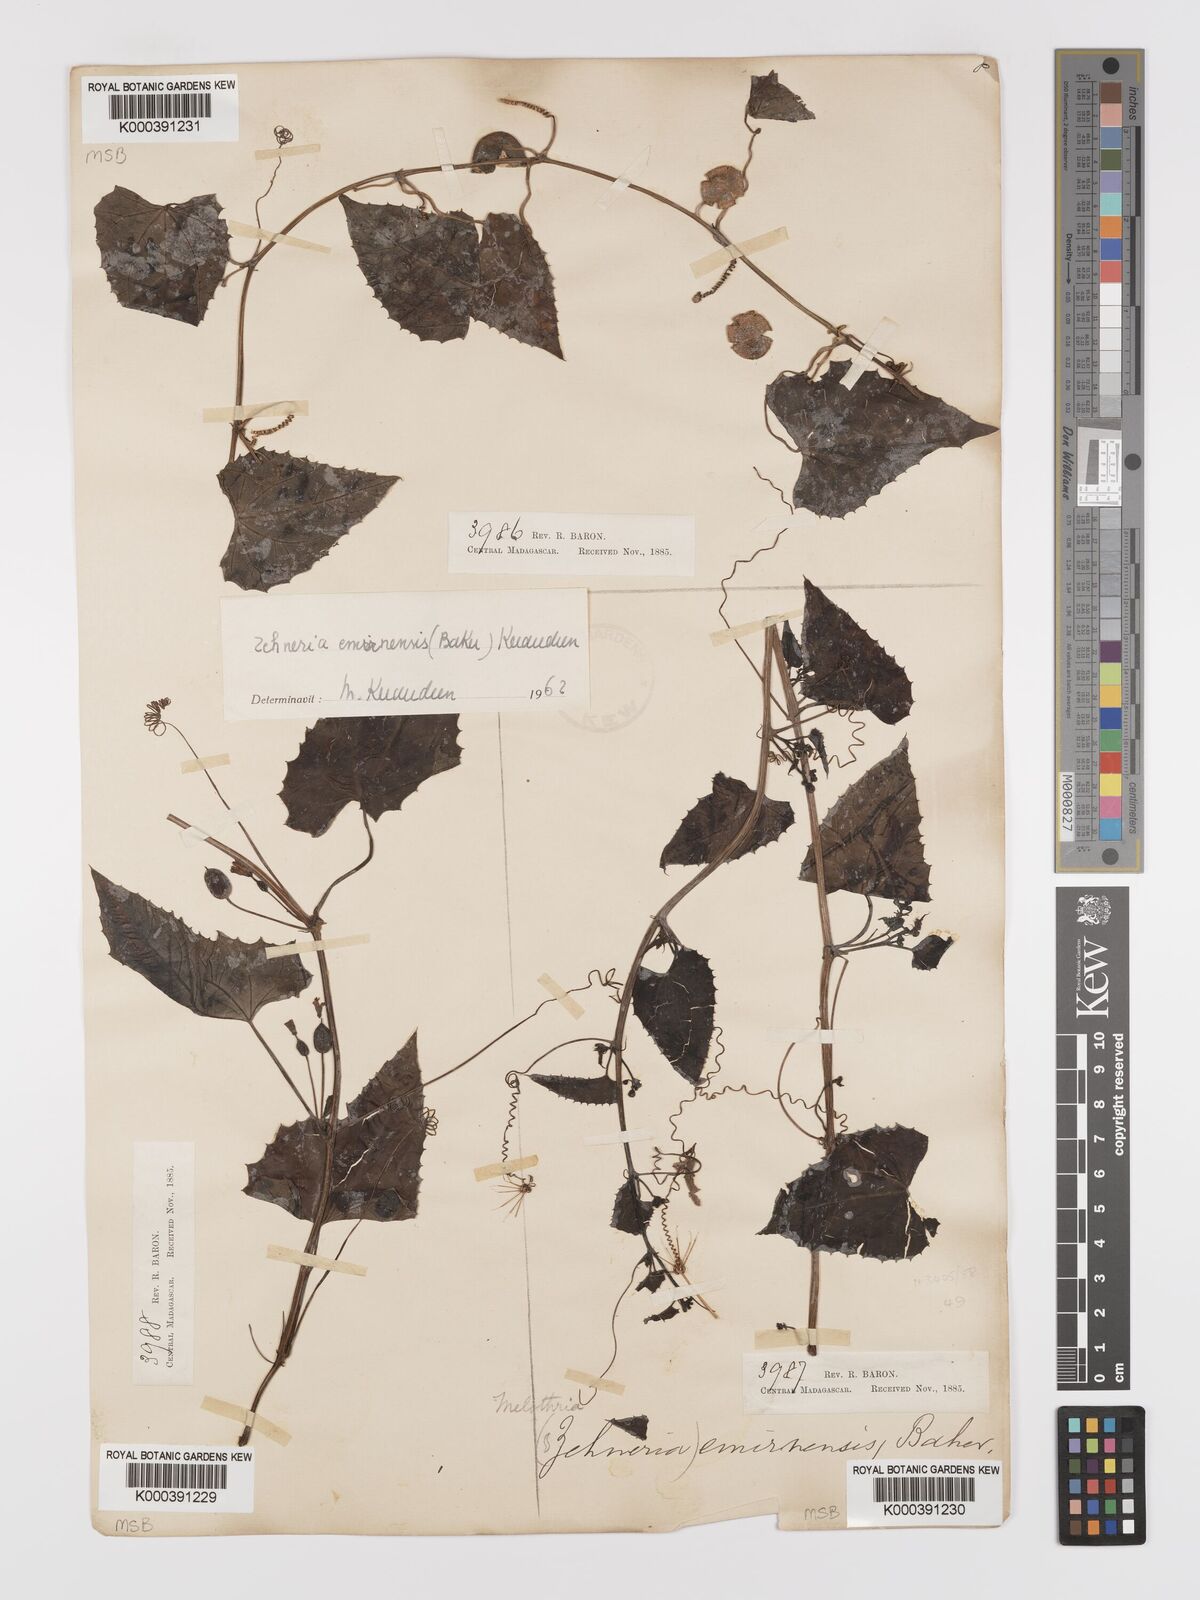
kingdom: Plantae
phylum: Tracheophyta
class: Magnoliopsida
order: Cucurbitales
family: Cucurbitaceae
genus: Zehneria
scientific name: Zehneria emirnensis
